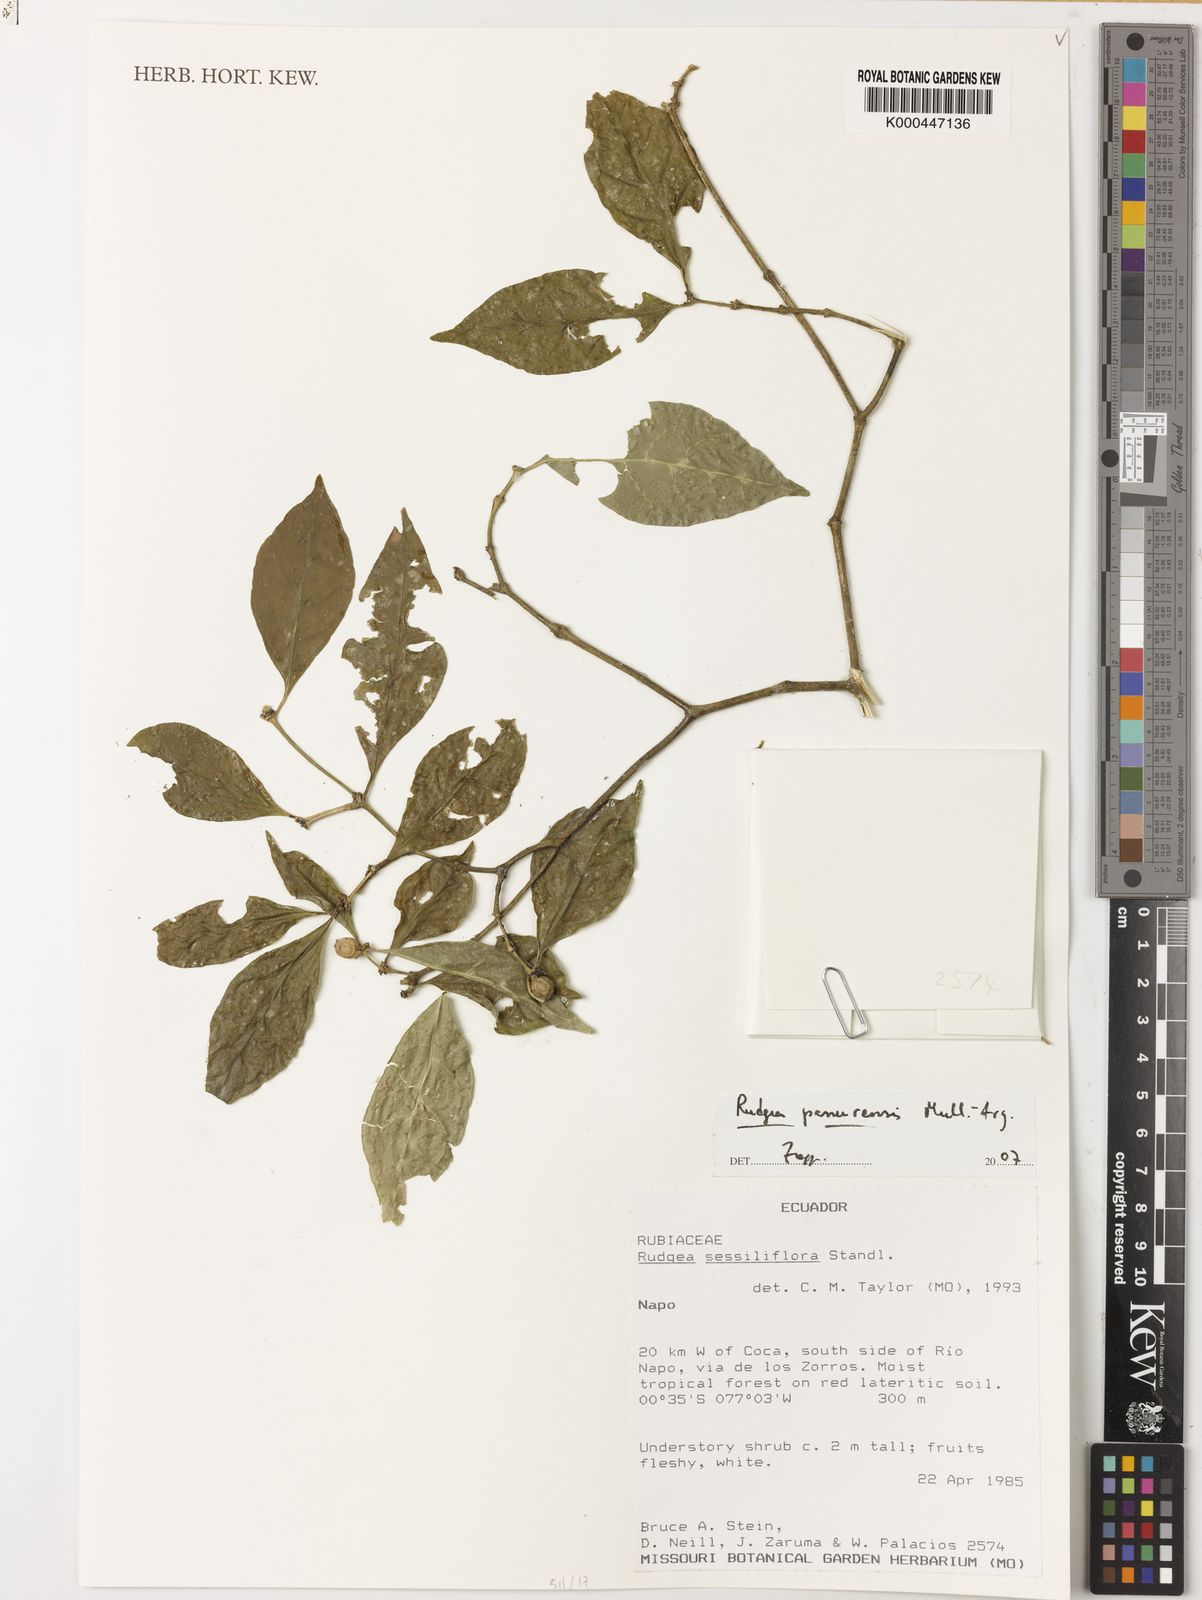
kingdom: Plantae
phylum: Tracheophyta
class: Magnoliopsida
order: Gentianales
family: Rubiaceae
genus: Rudgea
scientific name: Rudgea panurensis
